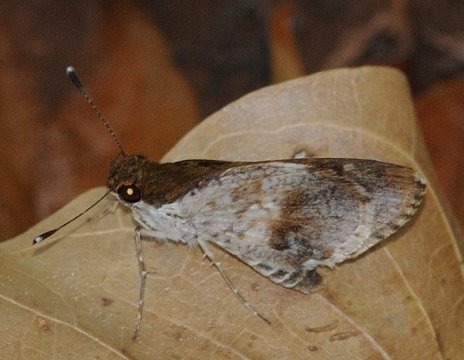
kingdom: Animalia
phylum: Arthropoda
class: Insecta
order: Lepidoptera
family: Hesperiidae
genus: Acleros
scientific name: Acleros mackenii
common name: Macken's Dart
